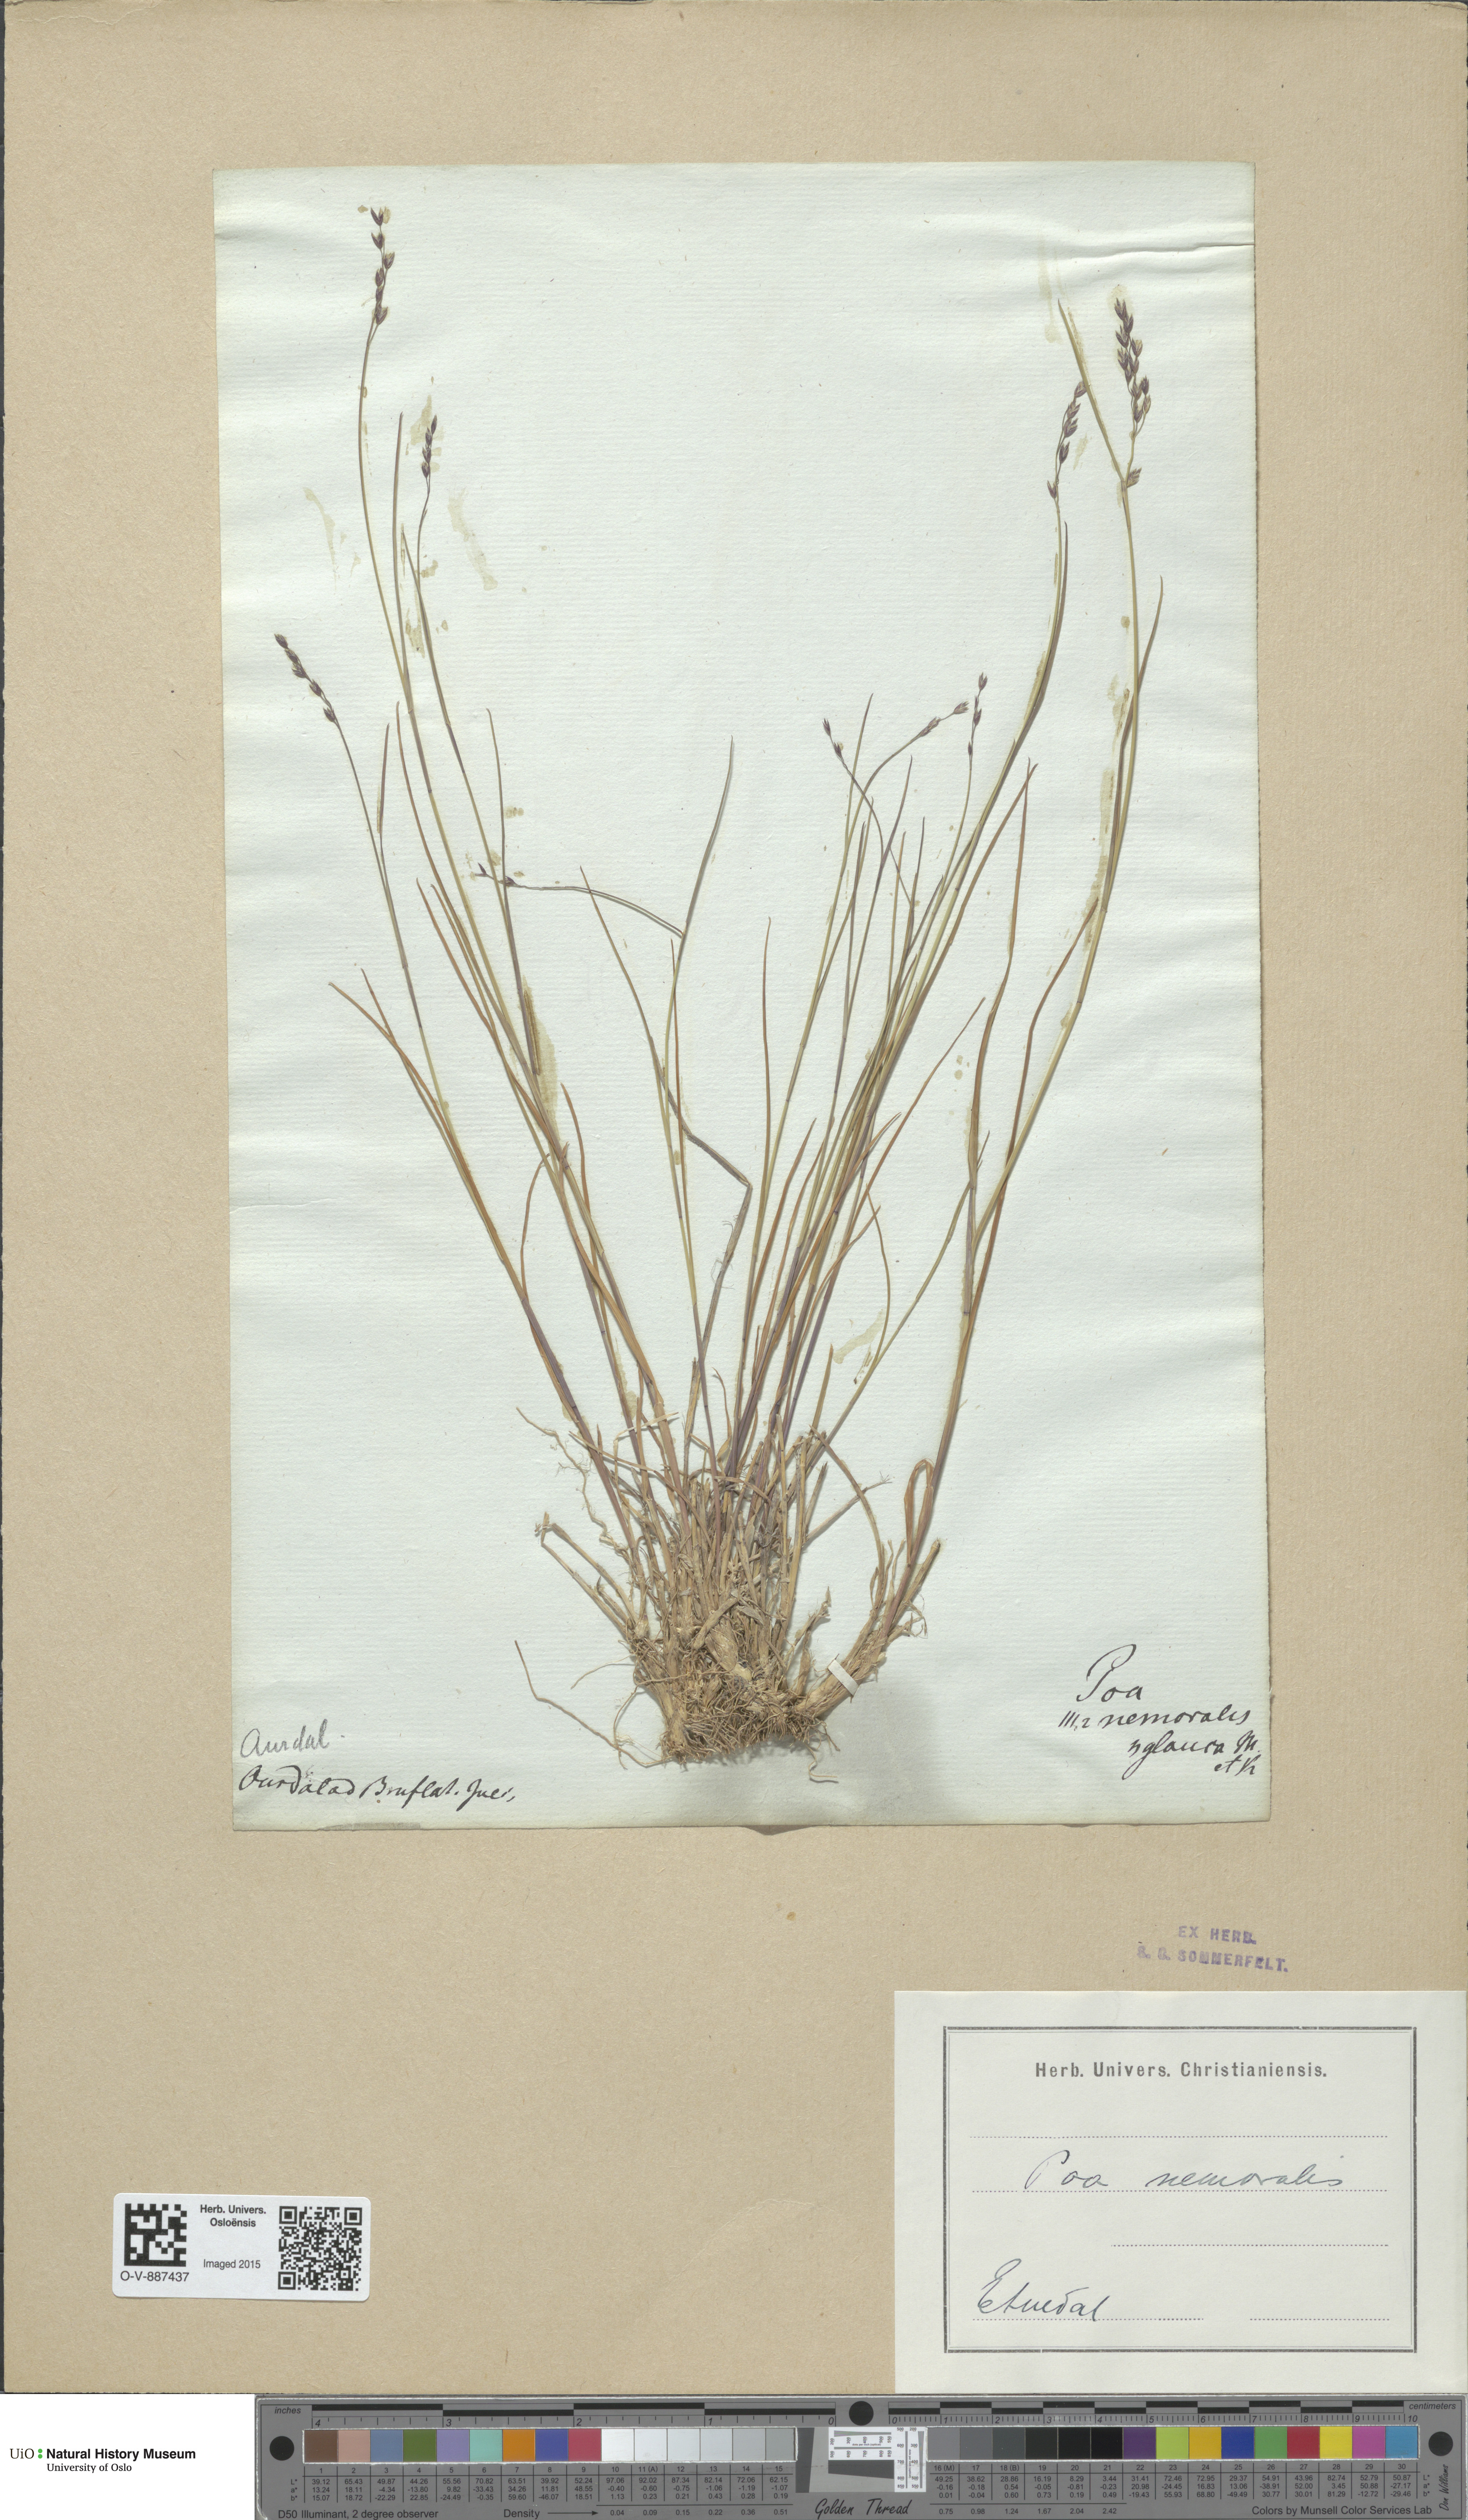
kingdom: Plantae
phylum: Tracheophyta
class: Liliopsida
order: Poales
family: Poaceae
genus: Poa
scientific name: Poa nemoralis
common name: Wood bluegrass
